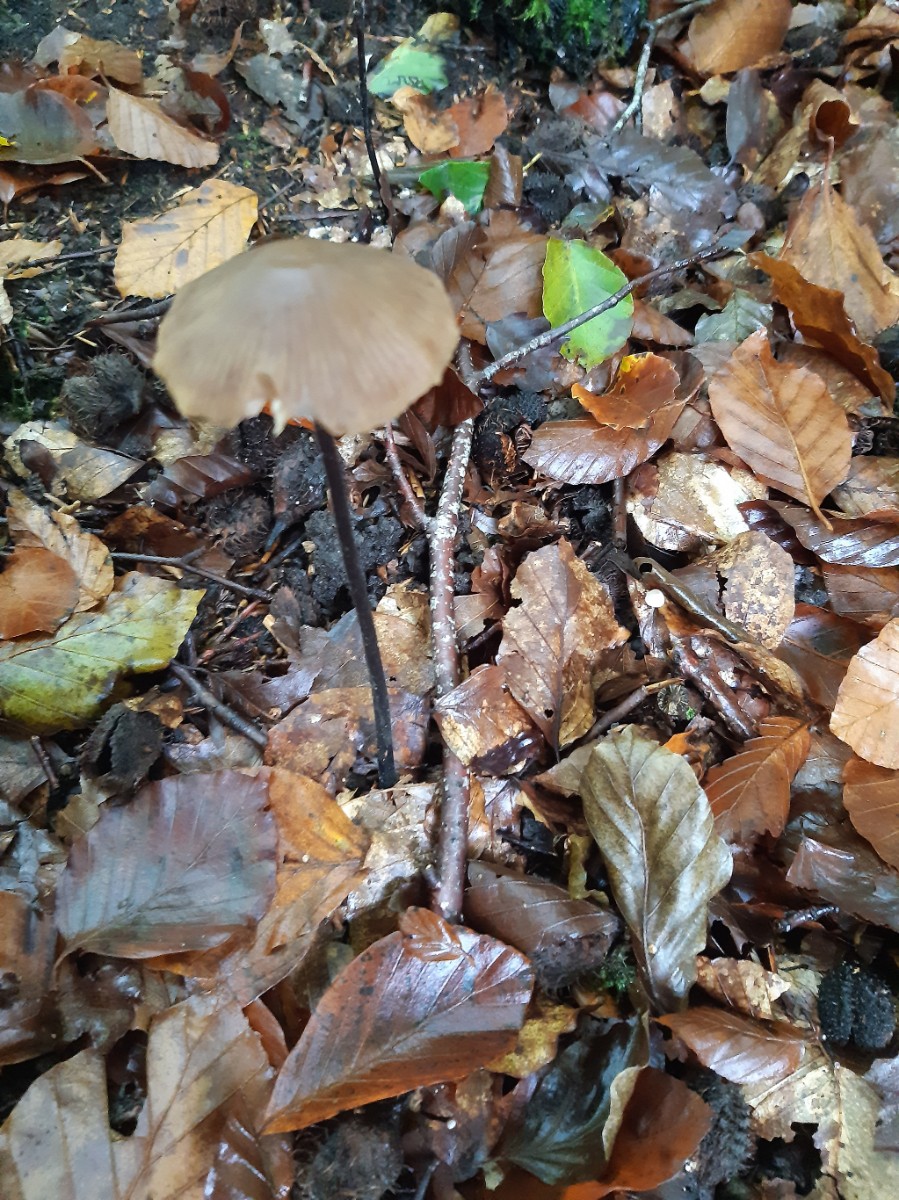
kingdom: Fungi
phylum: Basidiomycota
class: Agaricomycetes
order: Agaricales
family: Omphalotaceae
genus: Mycetinis
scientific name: Mycetinis alliaceus
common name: stor løghat
